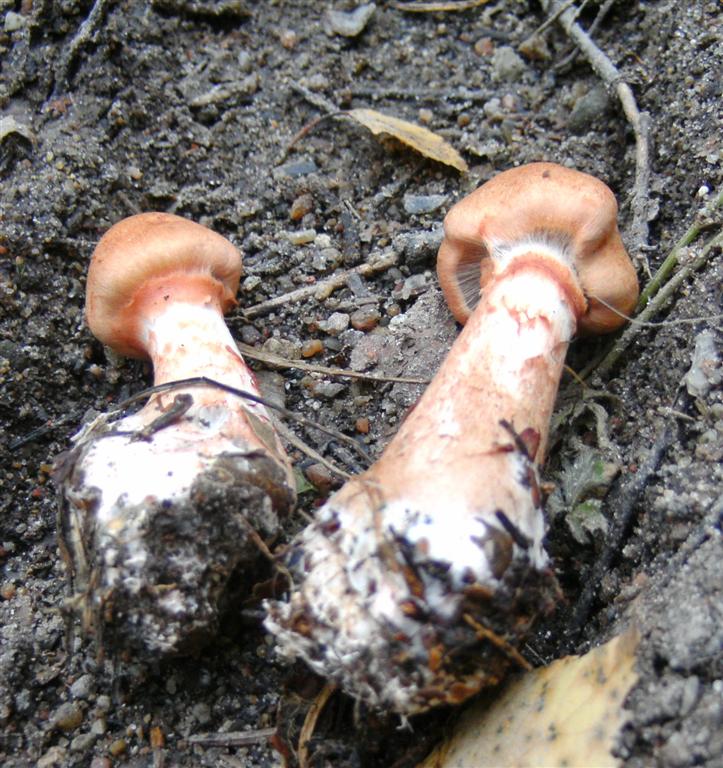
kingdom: Fungi
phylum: Basidiomycota
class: Agaricomycetes
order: Agaricales
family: Cortinariaceae
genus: Cortinarius
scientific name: Cortinarius armillatus
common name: cinnoberbæltet slørhat
